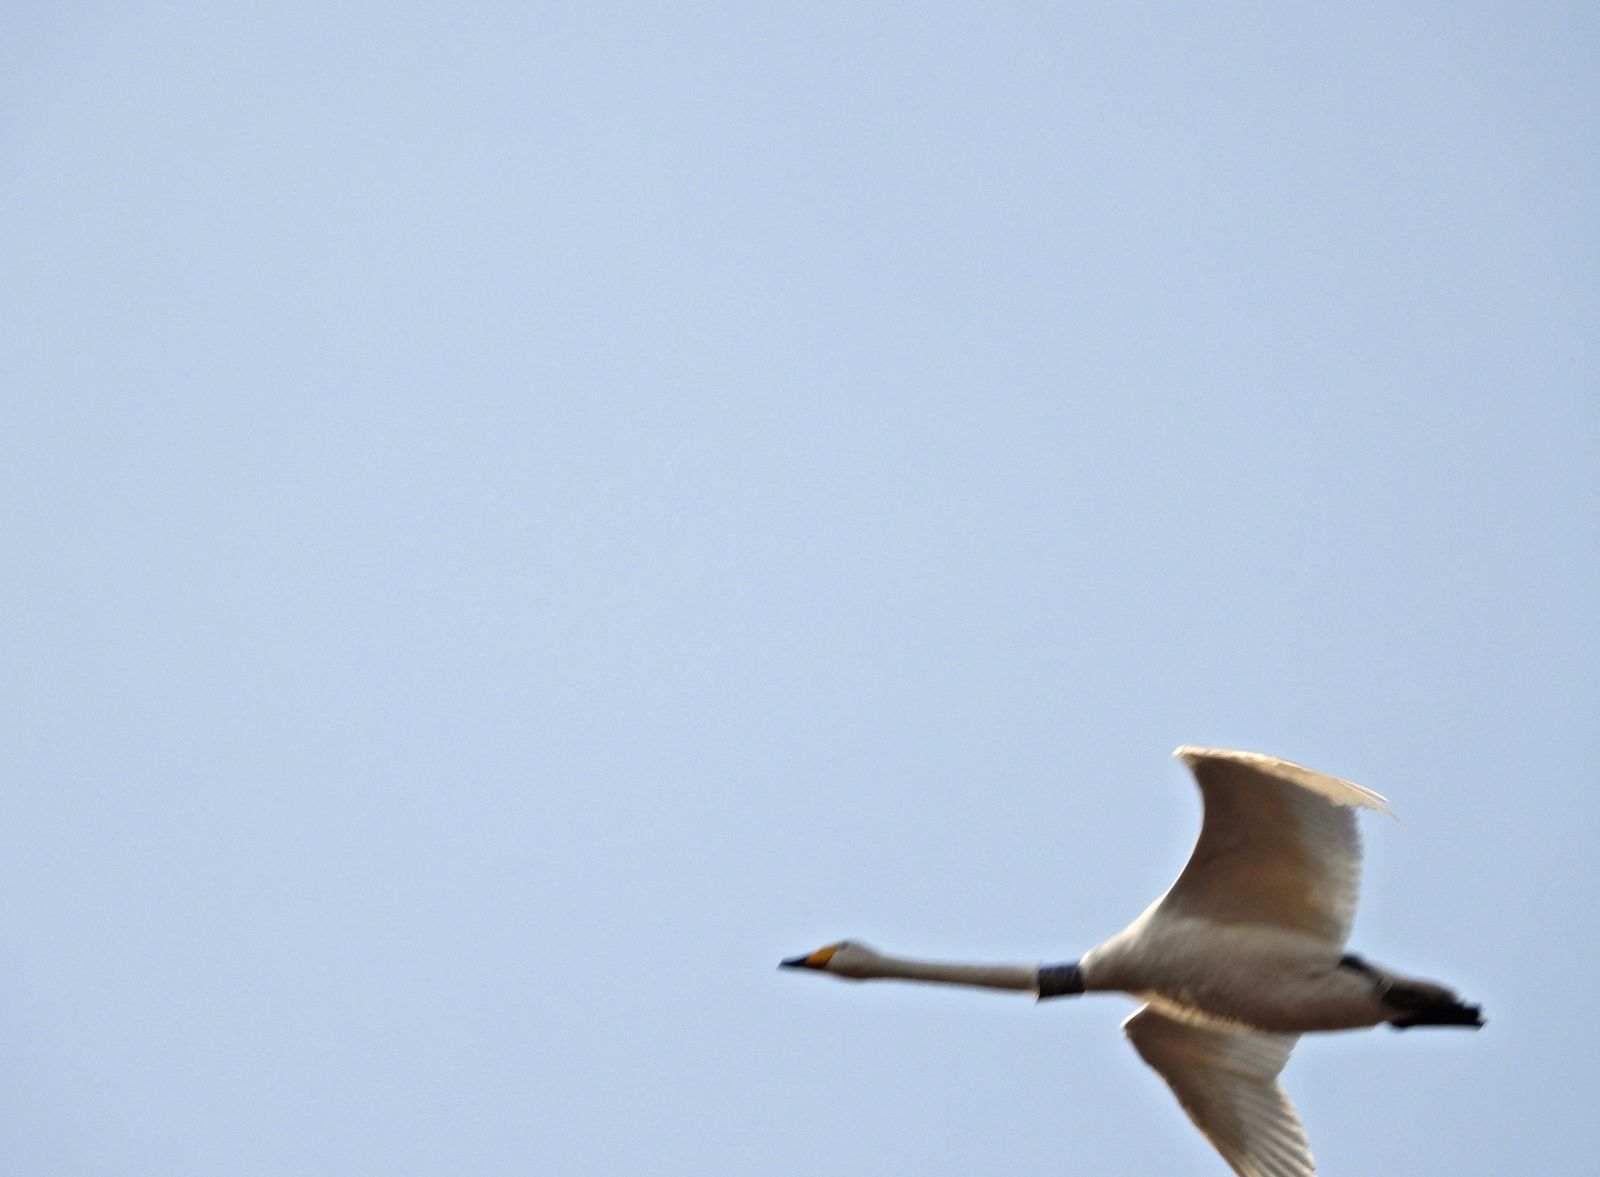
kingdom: Animalia
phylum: Chordata
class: Aves
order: Anseriformes
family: Anatidae
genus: Cygnus
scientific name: Cygnus cygnus
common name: Whooper swan
